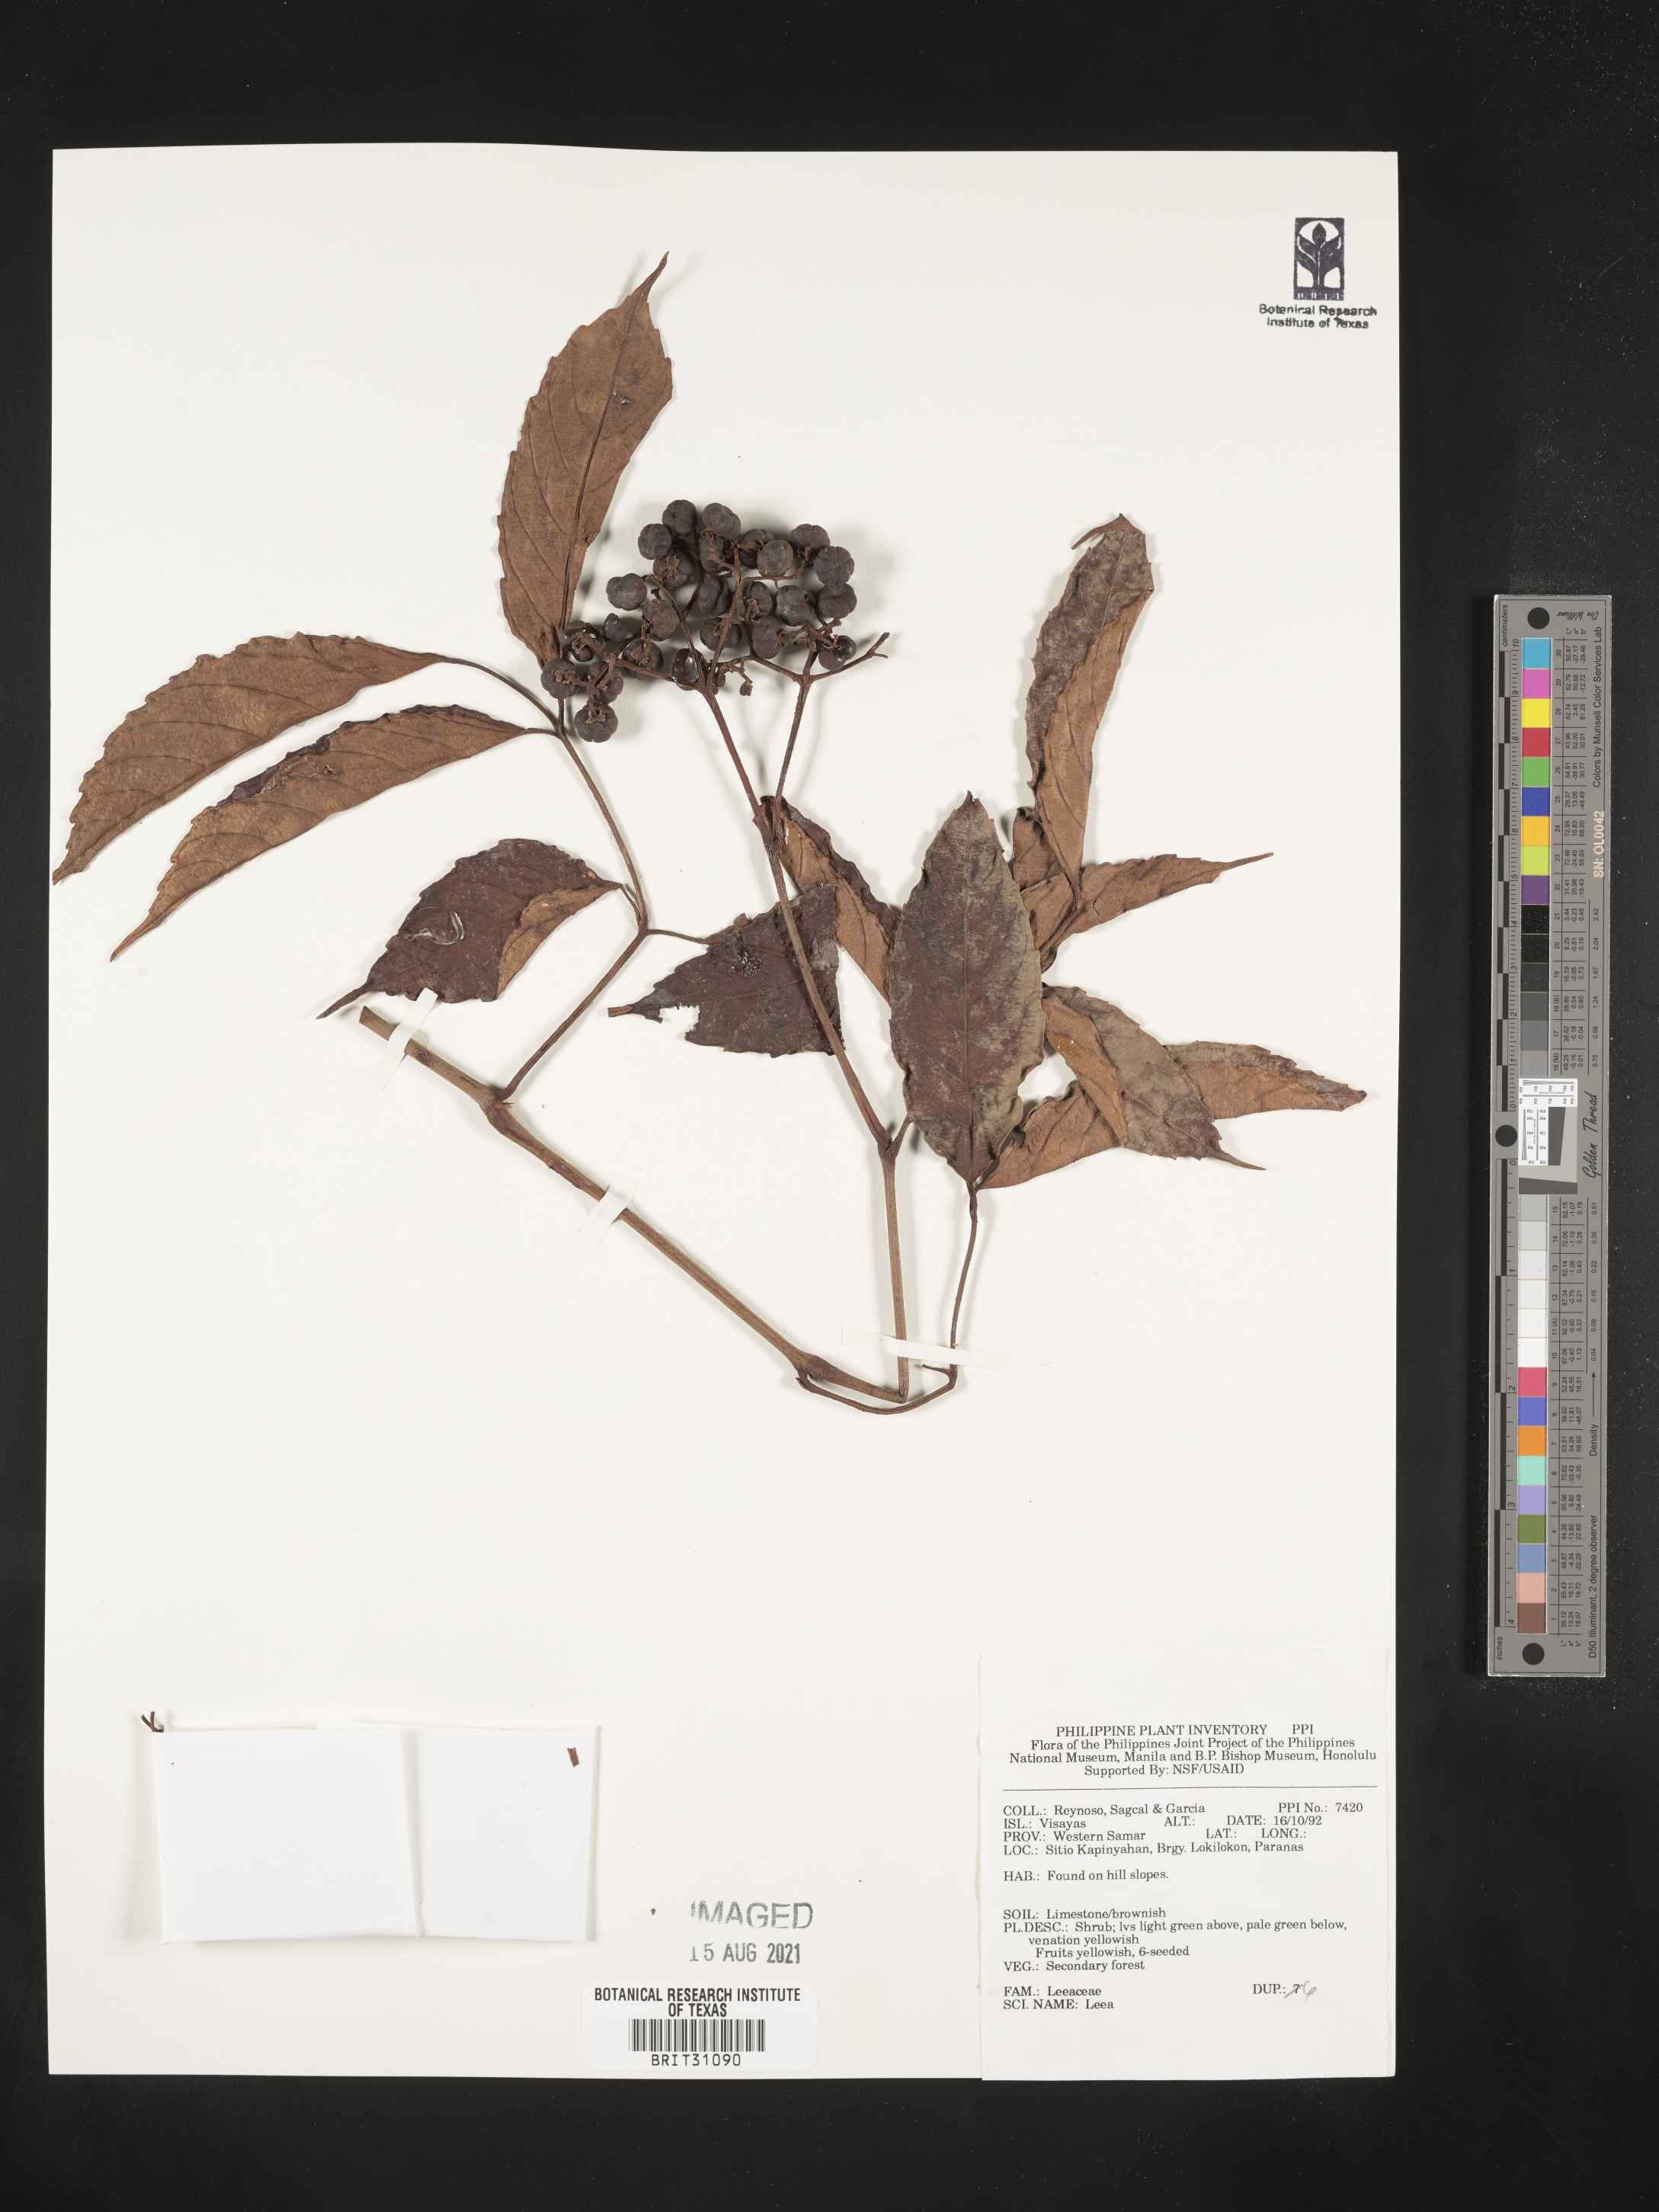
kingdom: Plantae
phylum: Tracheophyta
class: Magnoliopsida
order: Vitales
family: Vitaceae
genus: Leea
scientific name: Leea
